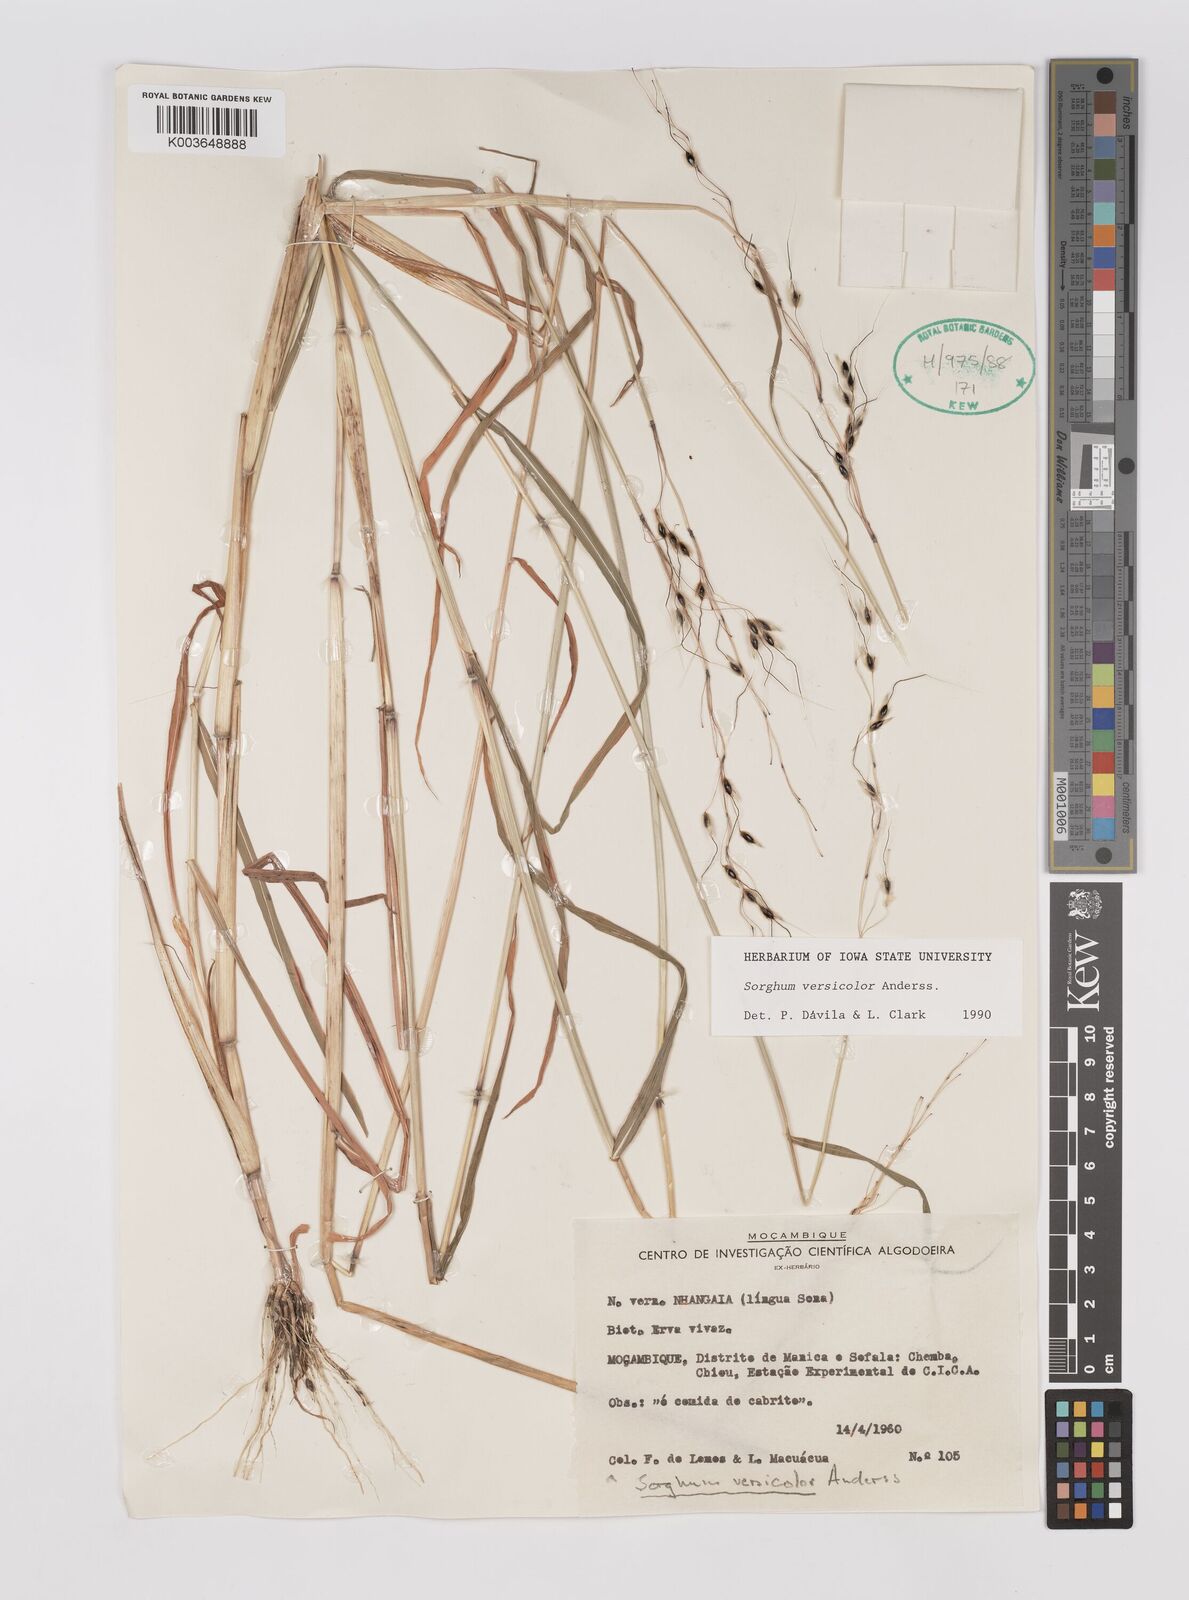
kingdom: Plantae
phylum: Tracheophyta
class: Liliopsida
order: Poales
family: Poaceae
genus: Sarga
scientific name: Sarga versicolor
